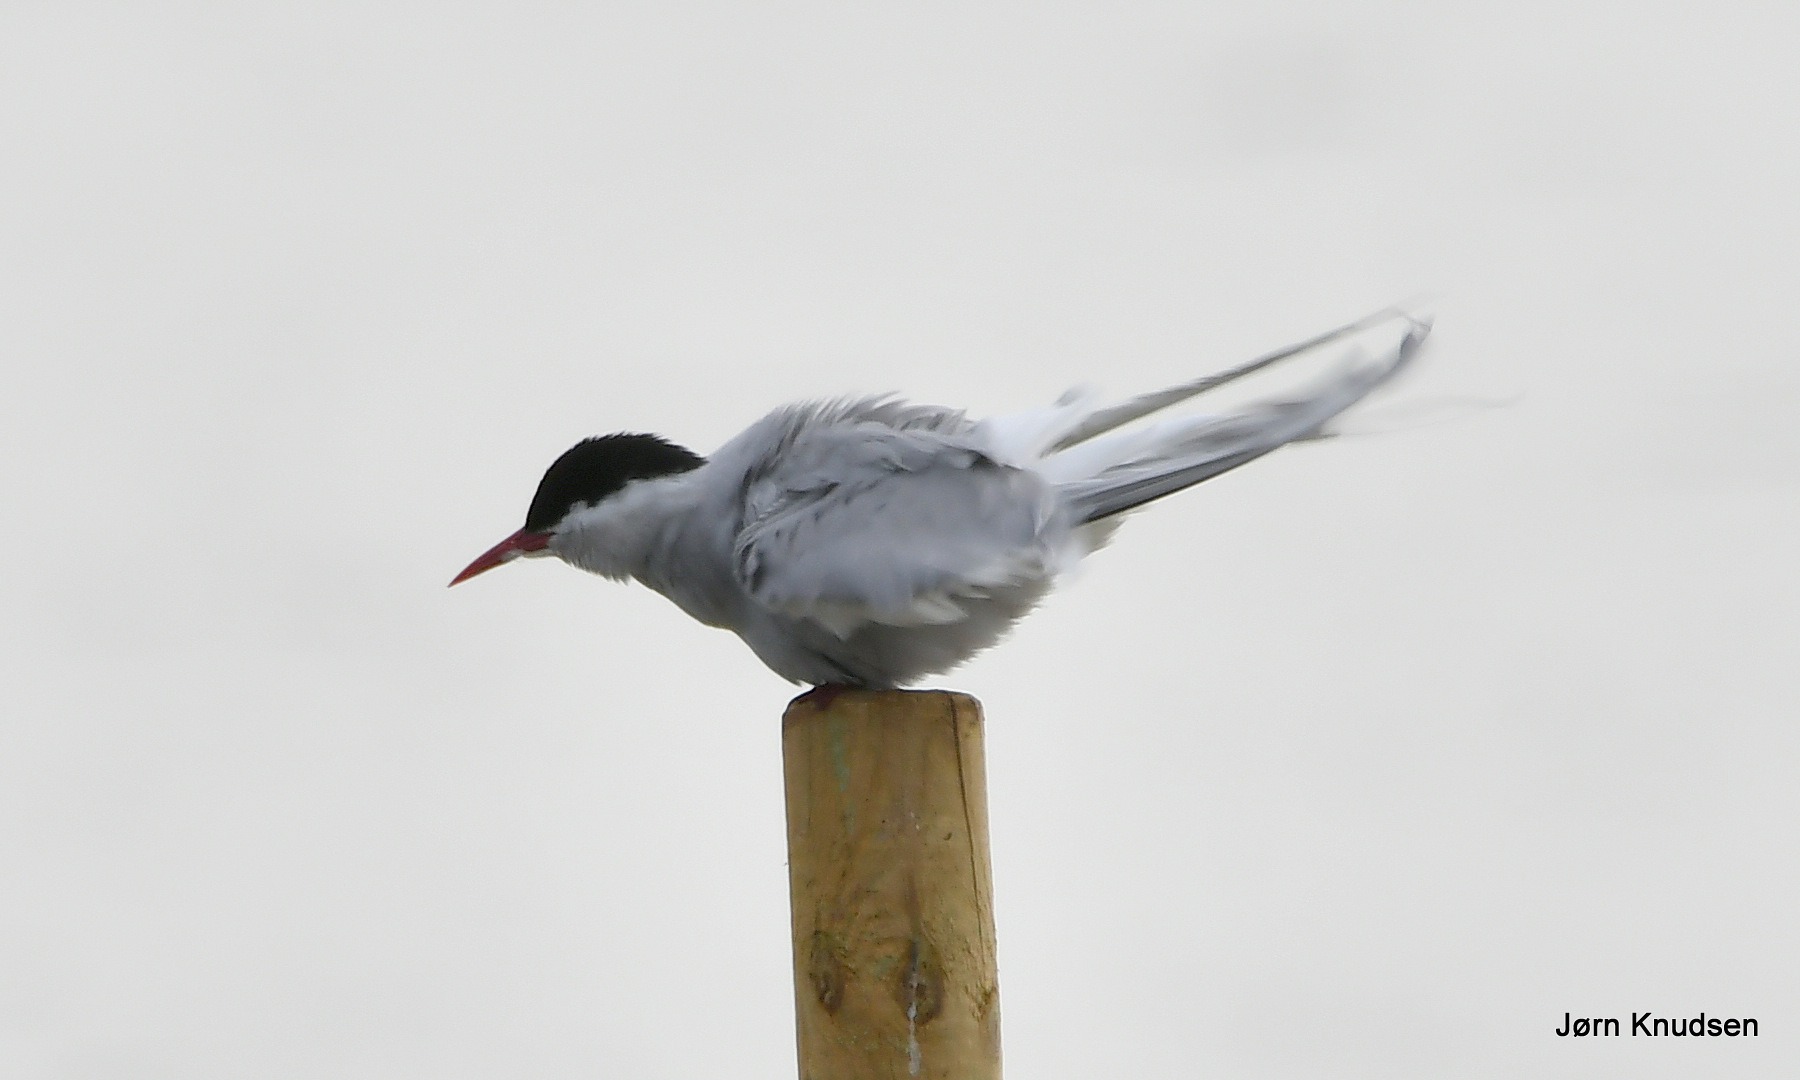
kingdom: Animalia
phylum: Chordata
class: Aves
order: Charadriiformes
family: Laridae
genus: Sterna
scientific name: Sterna paradisaea
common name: Havterne
